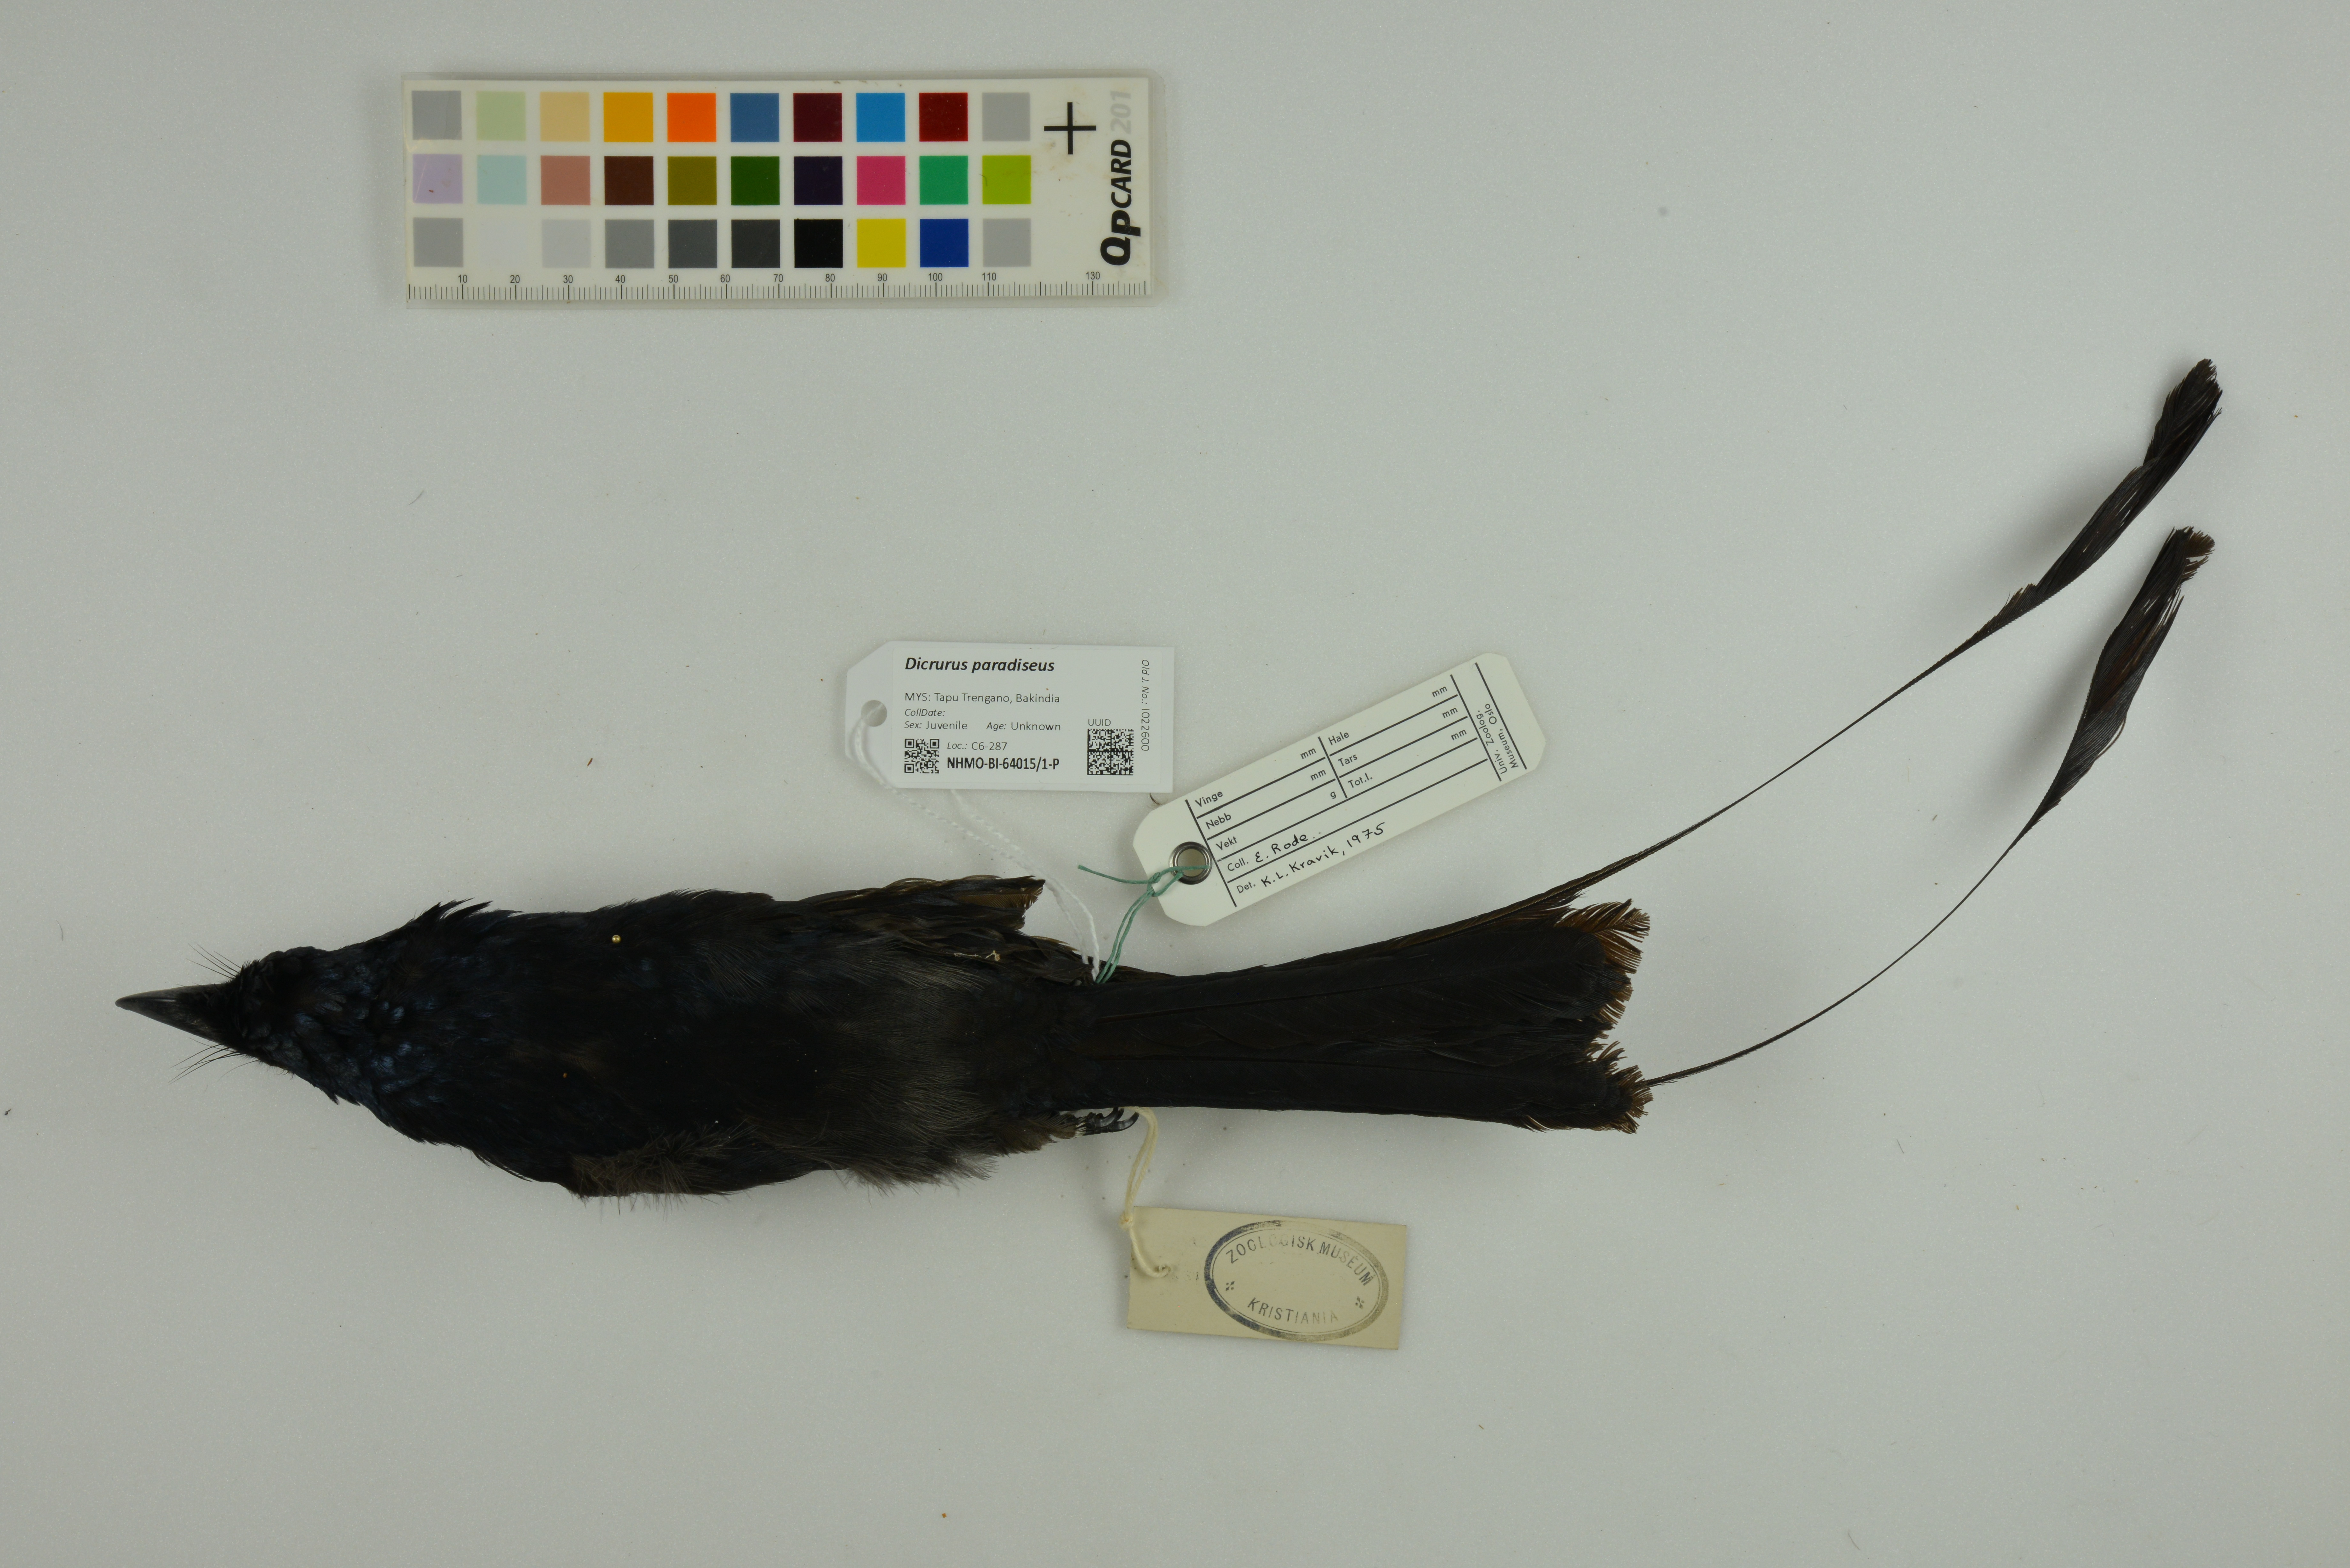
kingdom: Animalia
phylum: Chordata
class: Aves
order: Passeriformes
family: Dicruridae
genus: Dicrurus
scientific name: Dicrurus paradiseus
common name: Greater racket-tailed drongo
